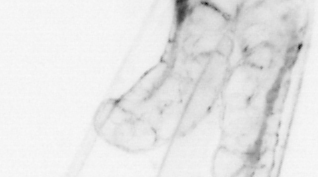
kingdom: Animalia
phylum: Chaetognatha
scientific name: Chaetognatha
